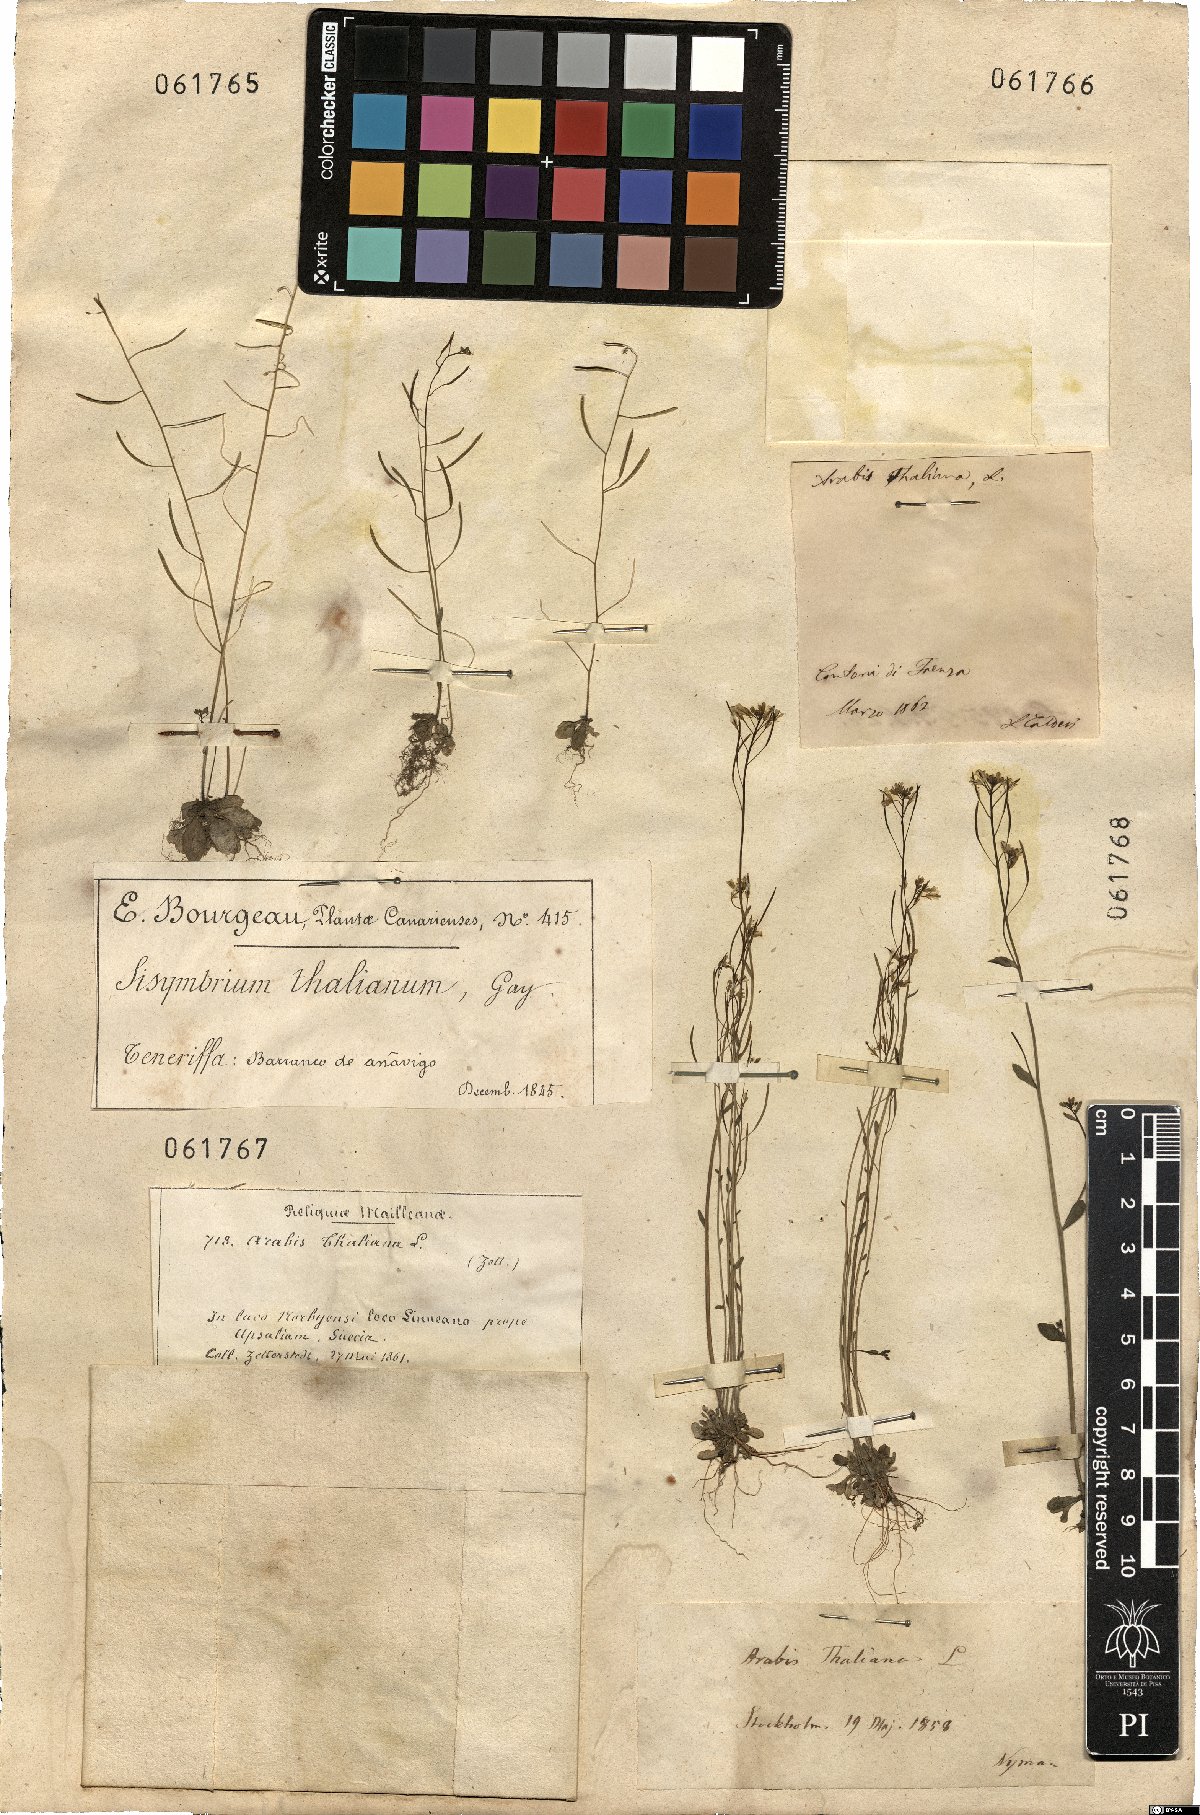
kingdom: Plantae
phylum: Tracheophyta
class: Magnoliopsida
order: Brassicales
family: Brassicaceae
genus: Arabidopsis
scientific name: Arabidopsis thaliana
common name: Thale cress
